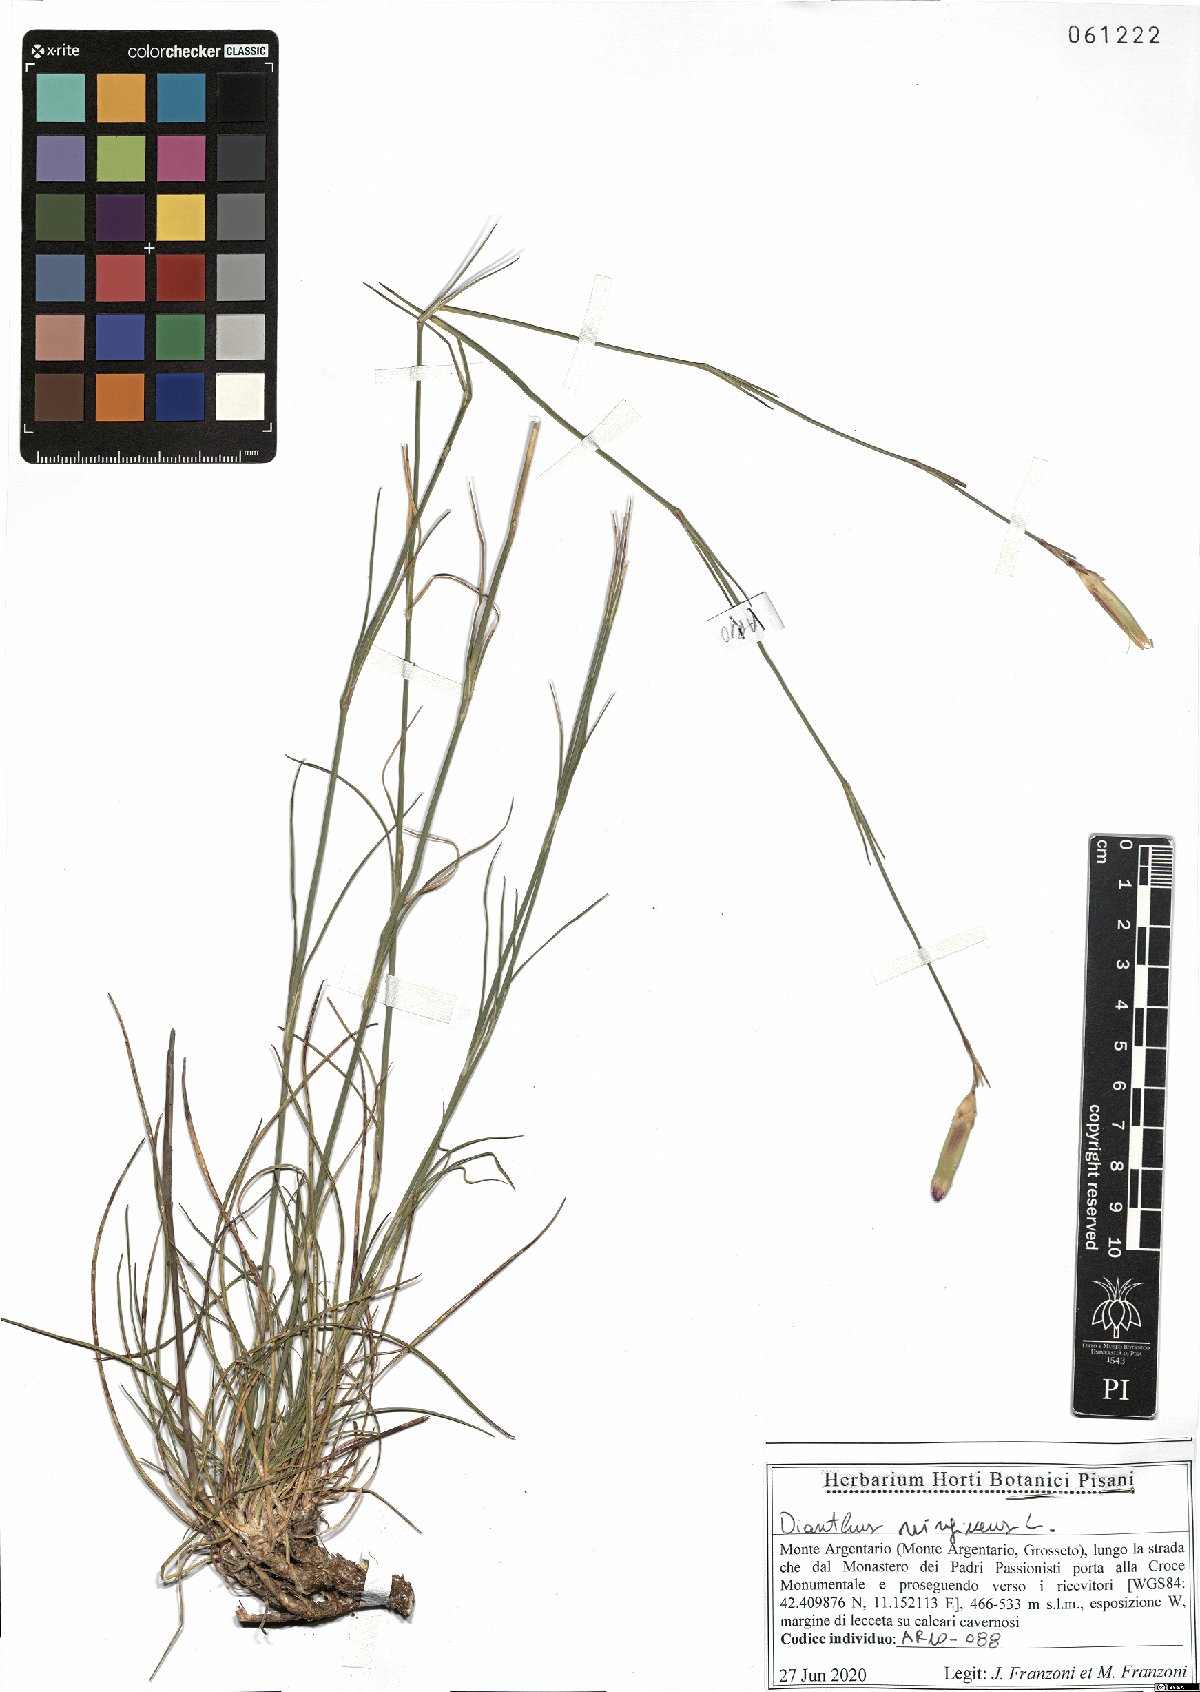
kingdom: Plantae
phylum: Tracheophyta
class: Magnoliopsida
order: Caryophyllales
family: Caryophyllaceae
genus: Dianthus
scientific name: Dianthus virgineus
